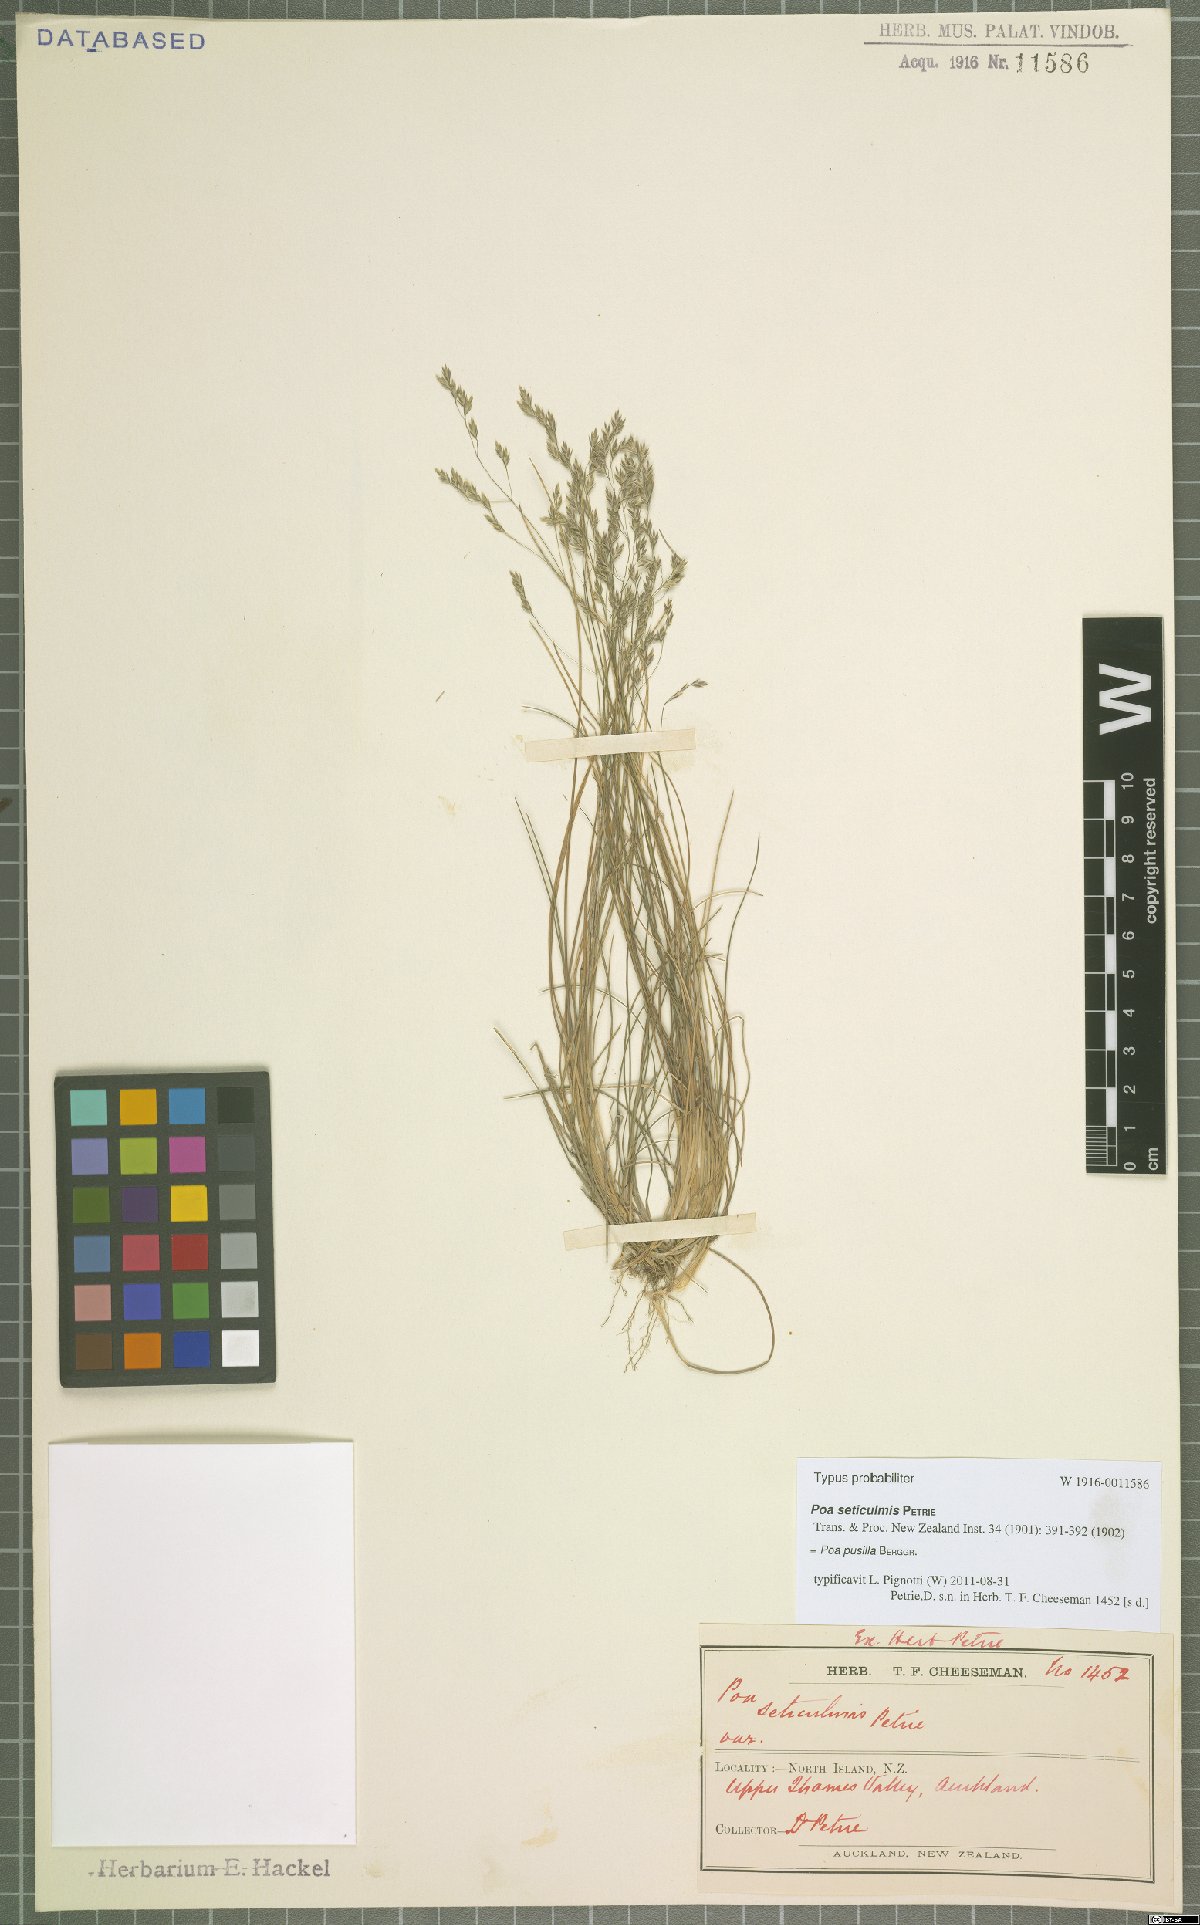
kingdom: Plantae
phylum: Tracheophyta
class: Liliopsida
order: Poales
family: Poaceae
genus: Poa
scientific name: Poa pusilla
